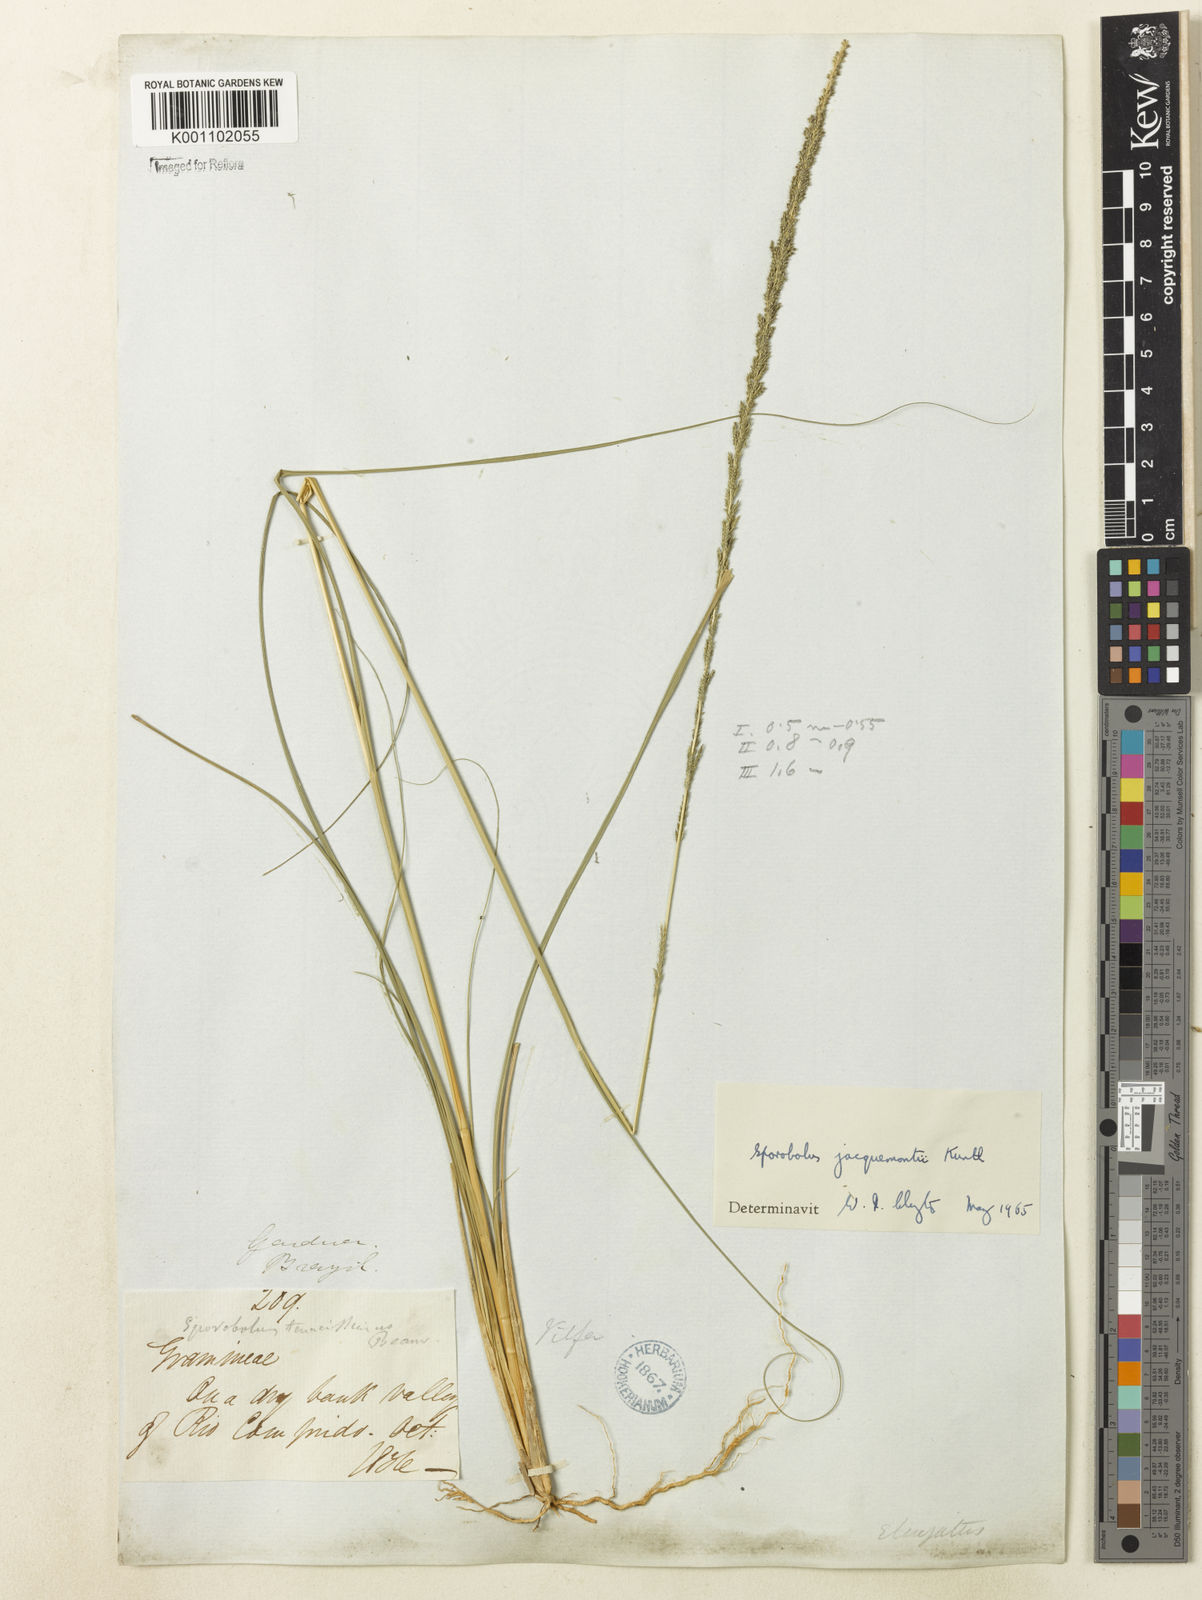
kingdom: Plantae
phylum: Tracheophyta
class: Liliopsida
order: Poales
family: Poaceae
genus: Sporobolus
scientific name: Sporobolus pyramidalis
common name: West indian dropseed
